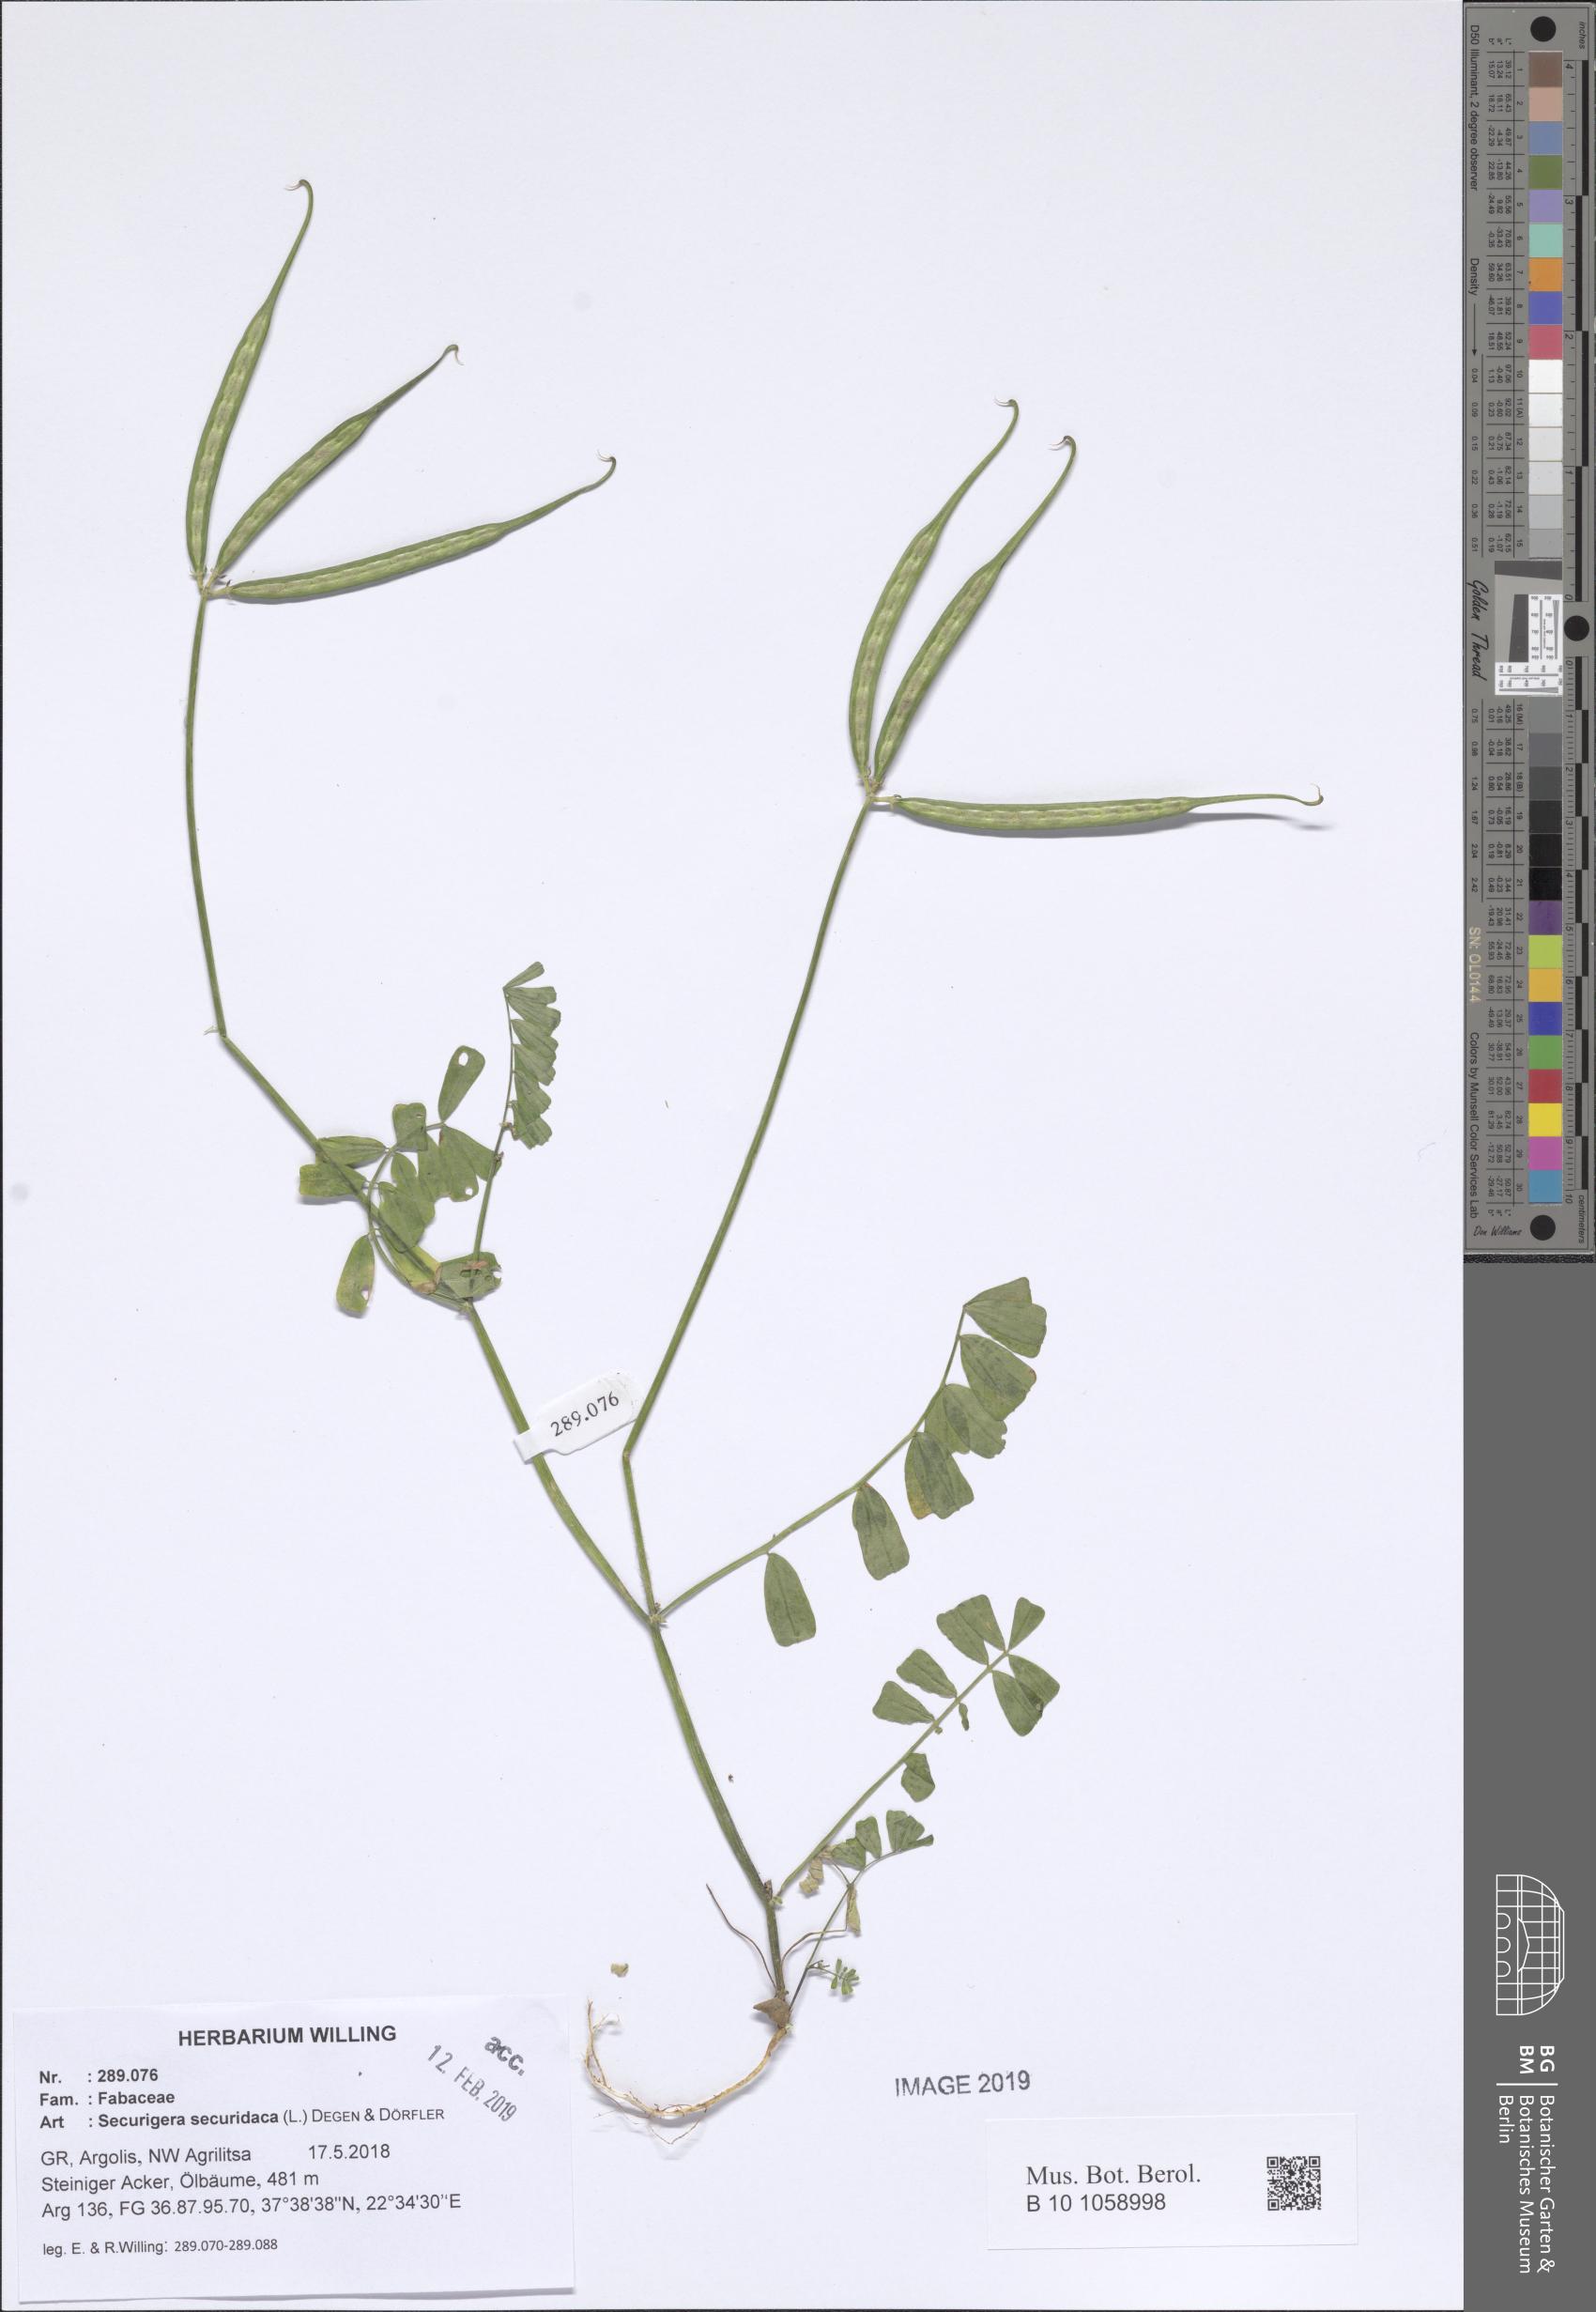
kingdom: Plantae
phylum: Tracheophyta
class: Magnoliopsida
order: Fabales
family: Fabaceae
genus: Coronilla
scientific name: Coronilla securidaca
